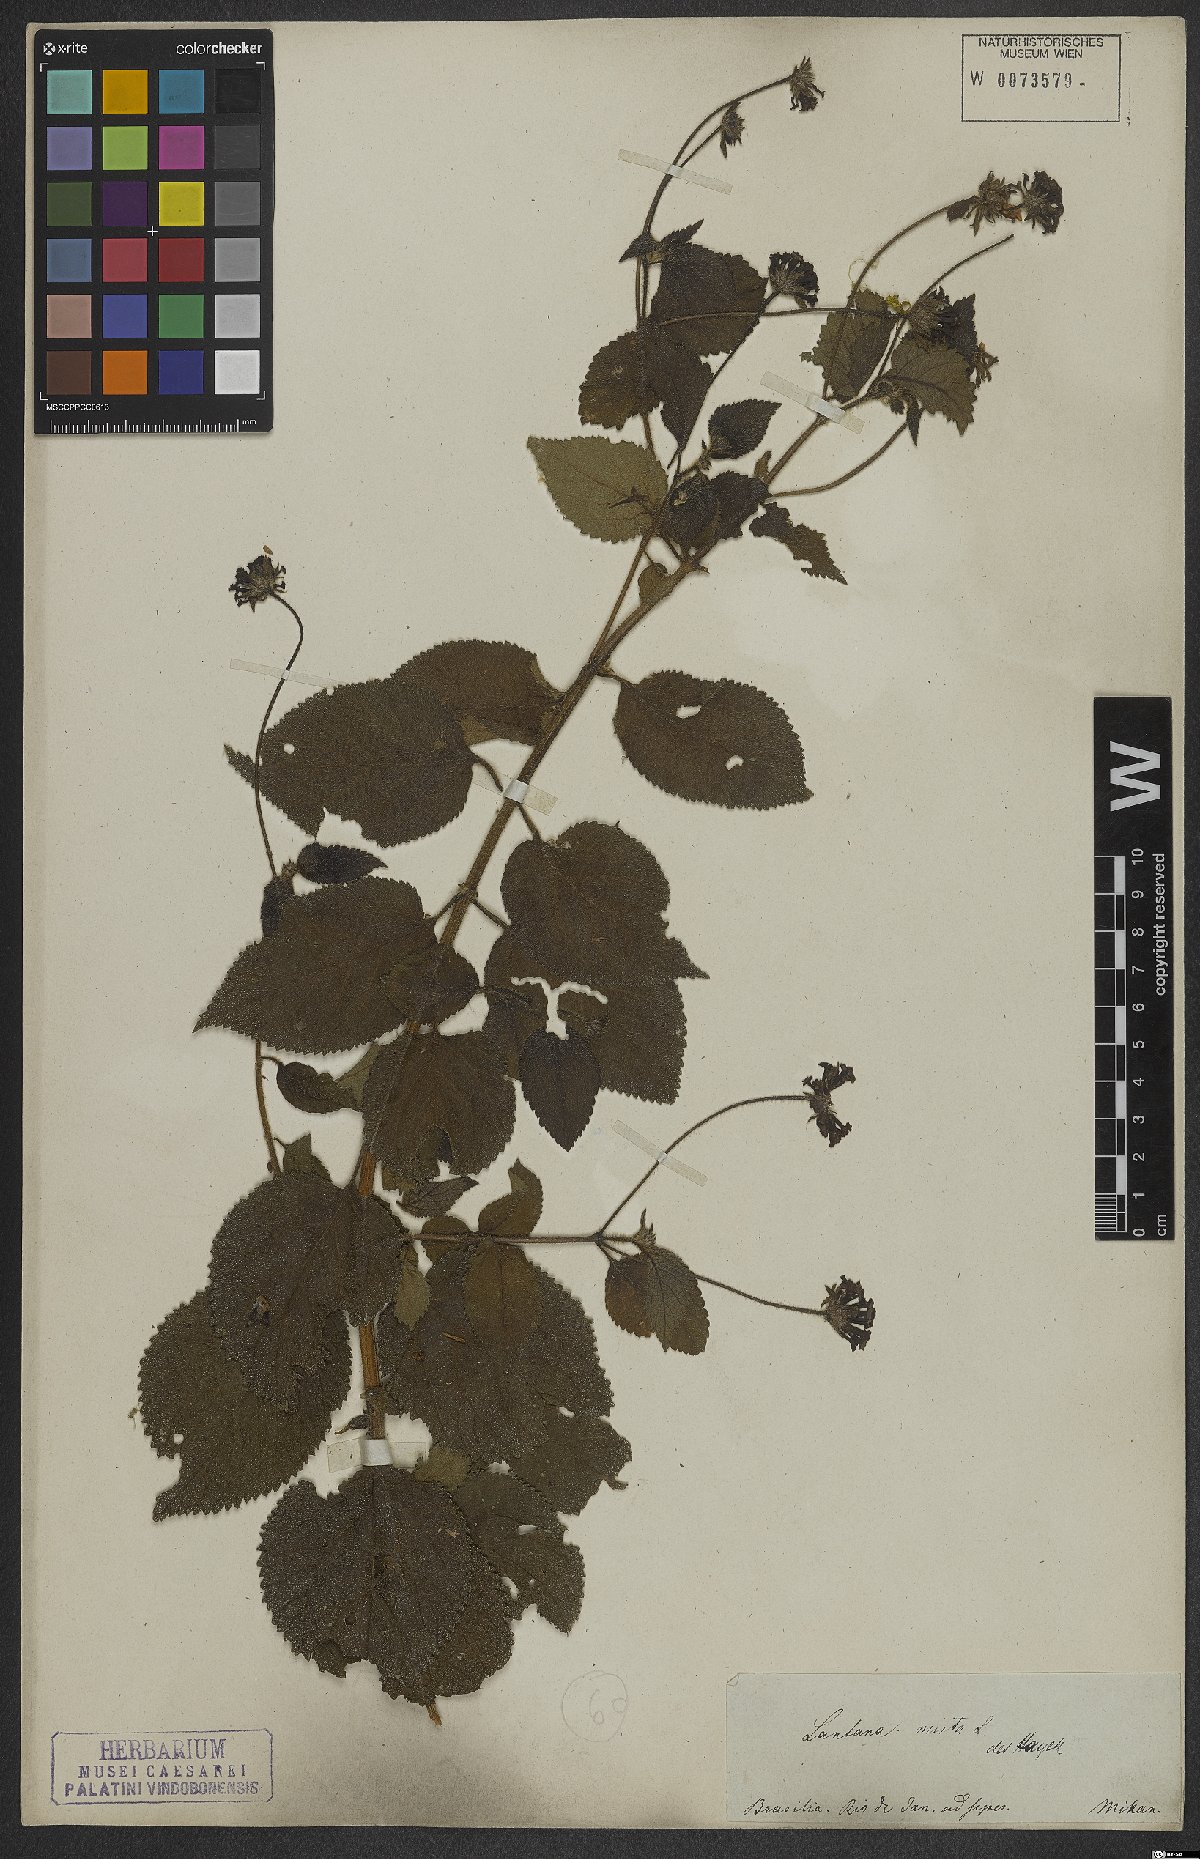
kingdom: Plantae
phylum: Tracheophyta
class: Magnoliopsida
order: Lamiales
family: Verbenaceae
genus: Lantana
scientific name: Lantana mista
